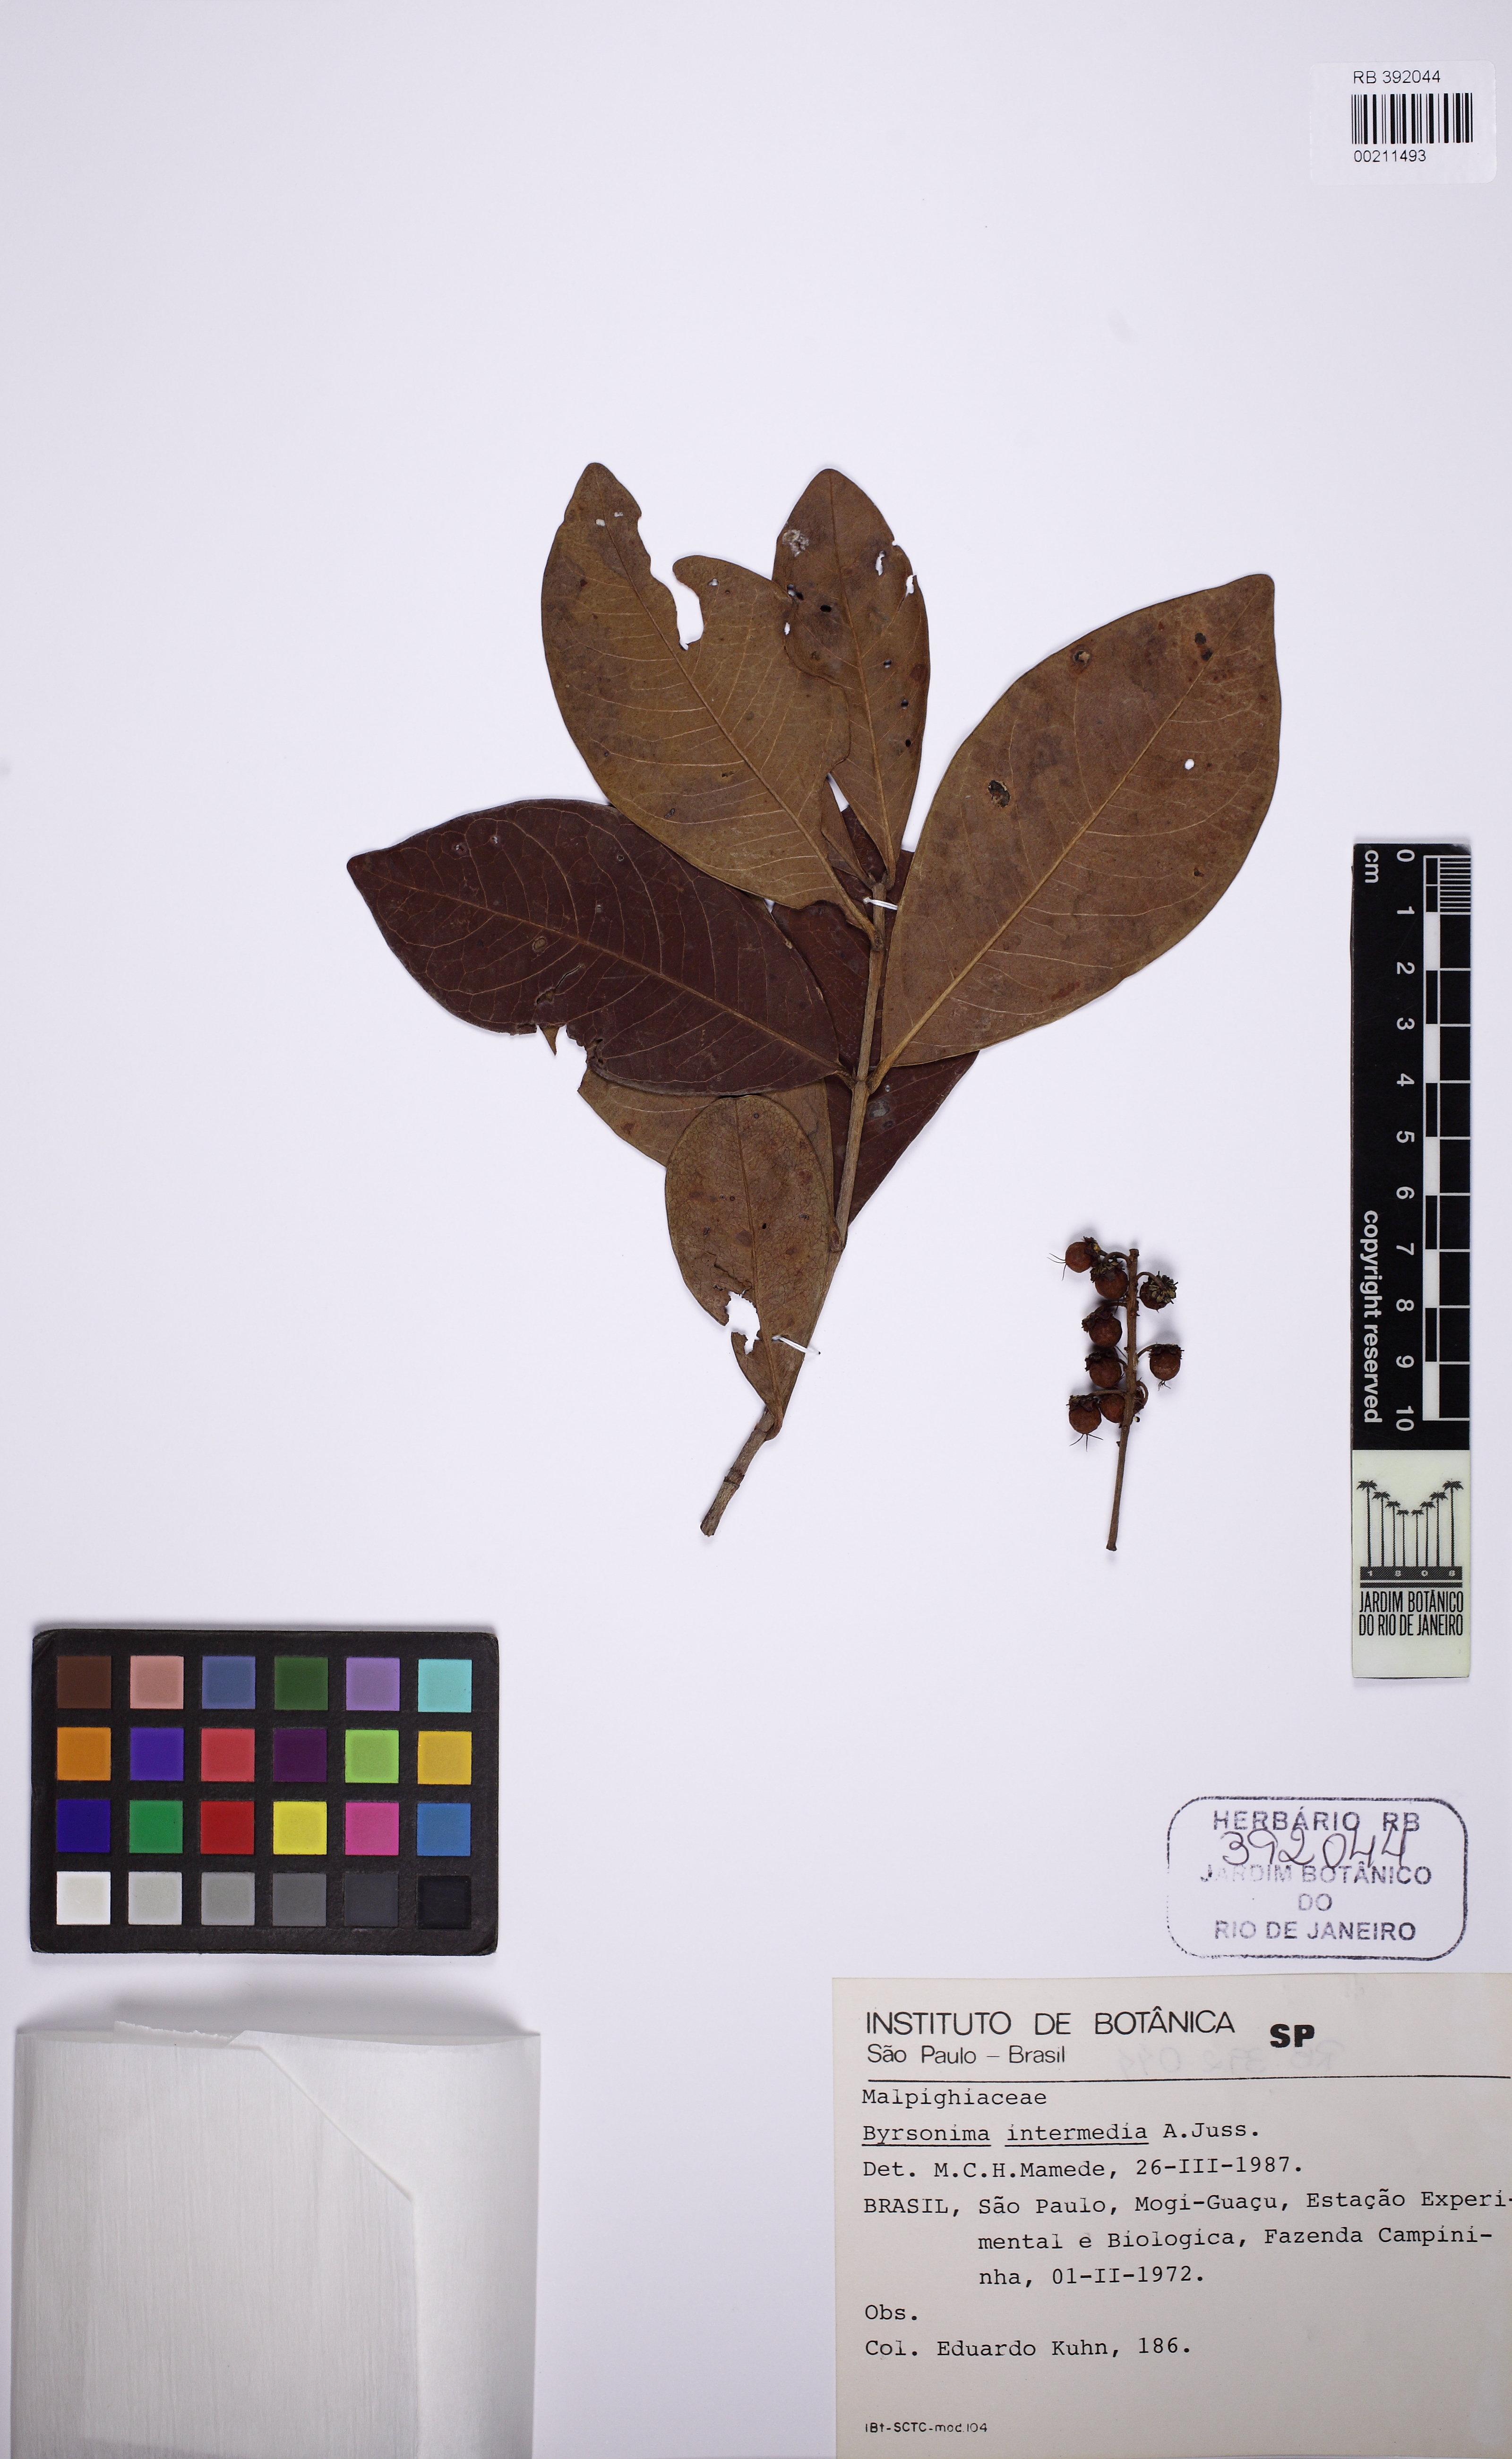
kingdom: Plantae
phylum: Tracheophyta
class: Magnoliopsida
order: Malpighiales
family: Malpighiaceae
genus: Byrsonima
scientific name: Byrsonima intermedia
